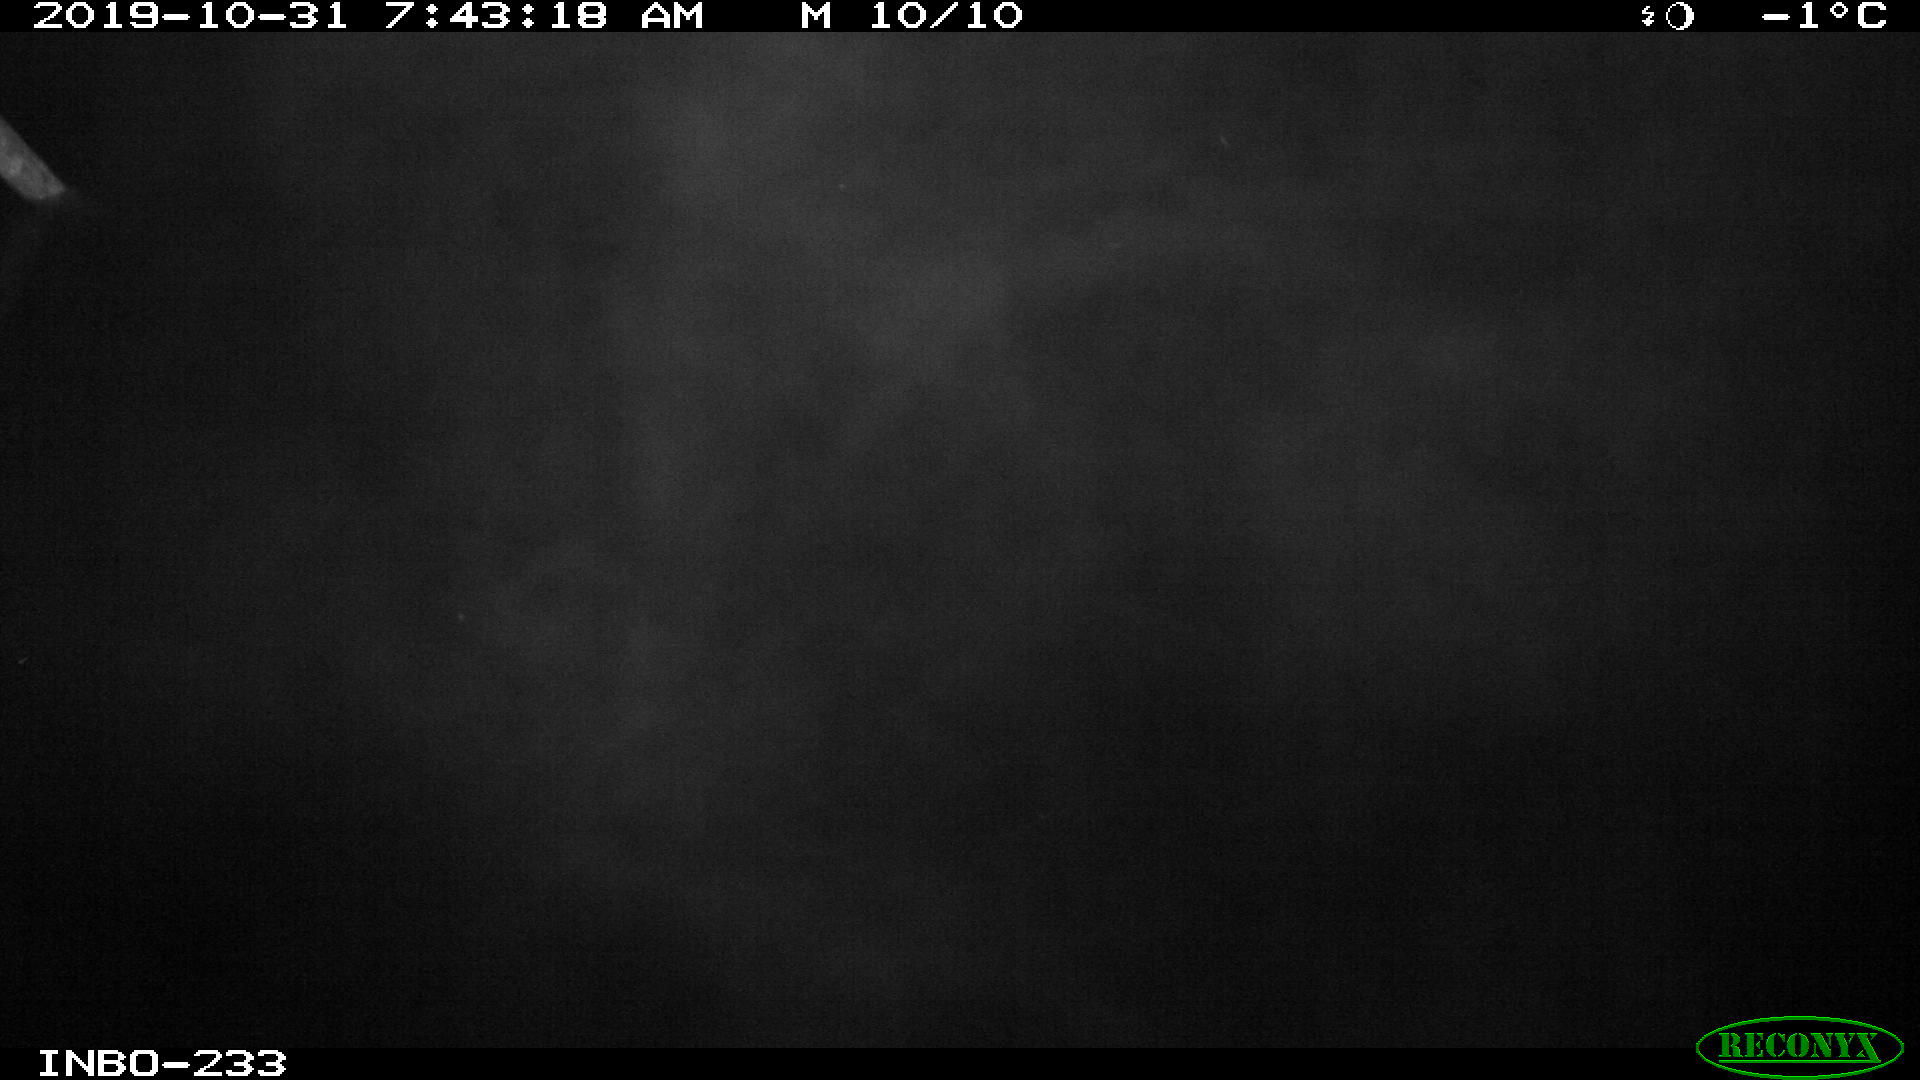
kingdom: Animalia
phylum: Chordata
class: Aves
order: Gruiformes
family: Rallidae
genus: Gallinula
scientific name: Gallinula chloropus
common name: Common moorhen
